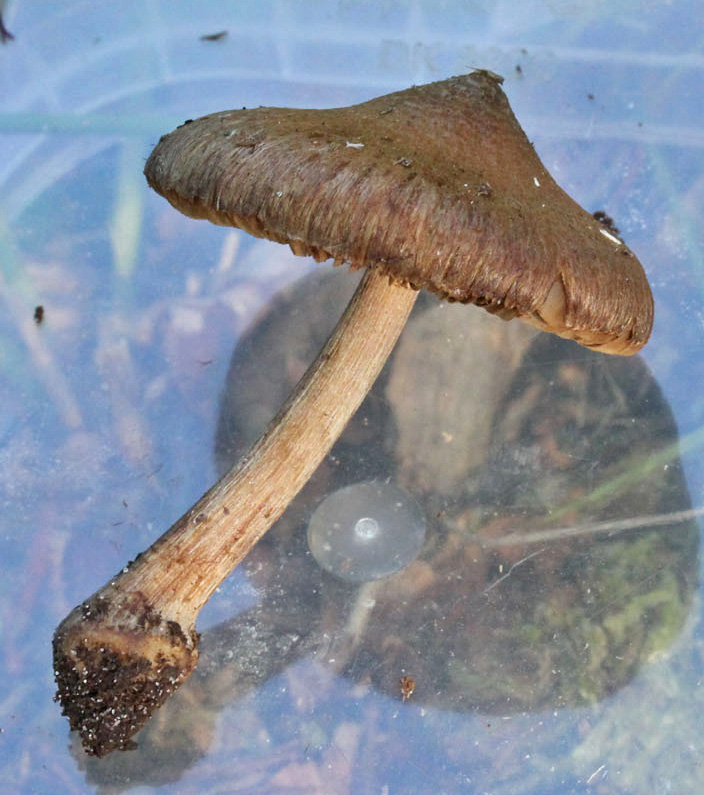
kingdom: Fungi
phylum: Basidiomycota
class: Agaricomycetes
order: Agaricales
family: Inocybaceae
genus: Inocybe
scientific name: Inocybe napipes
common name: roeknoldet trævlhat
